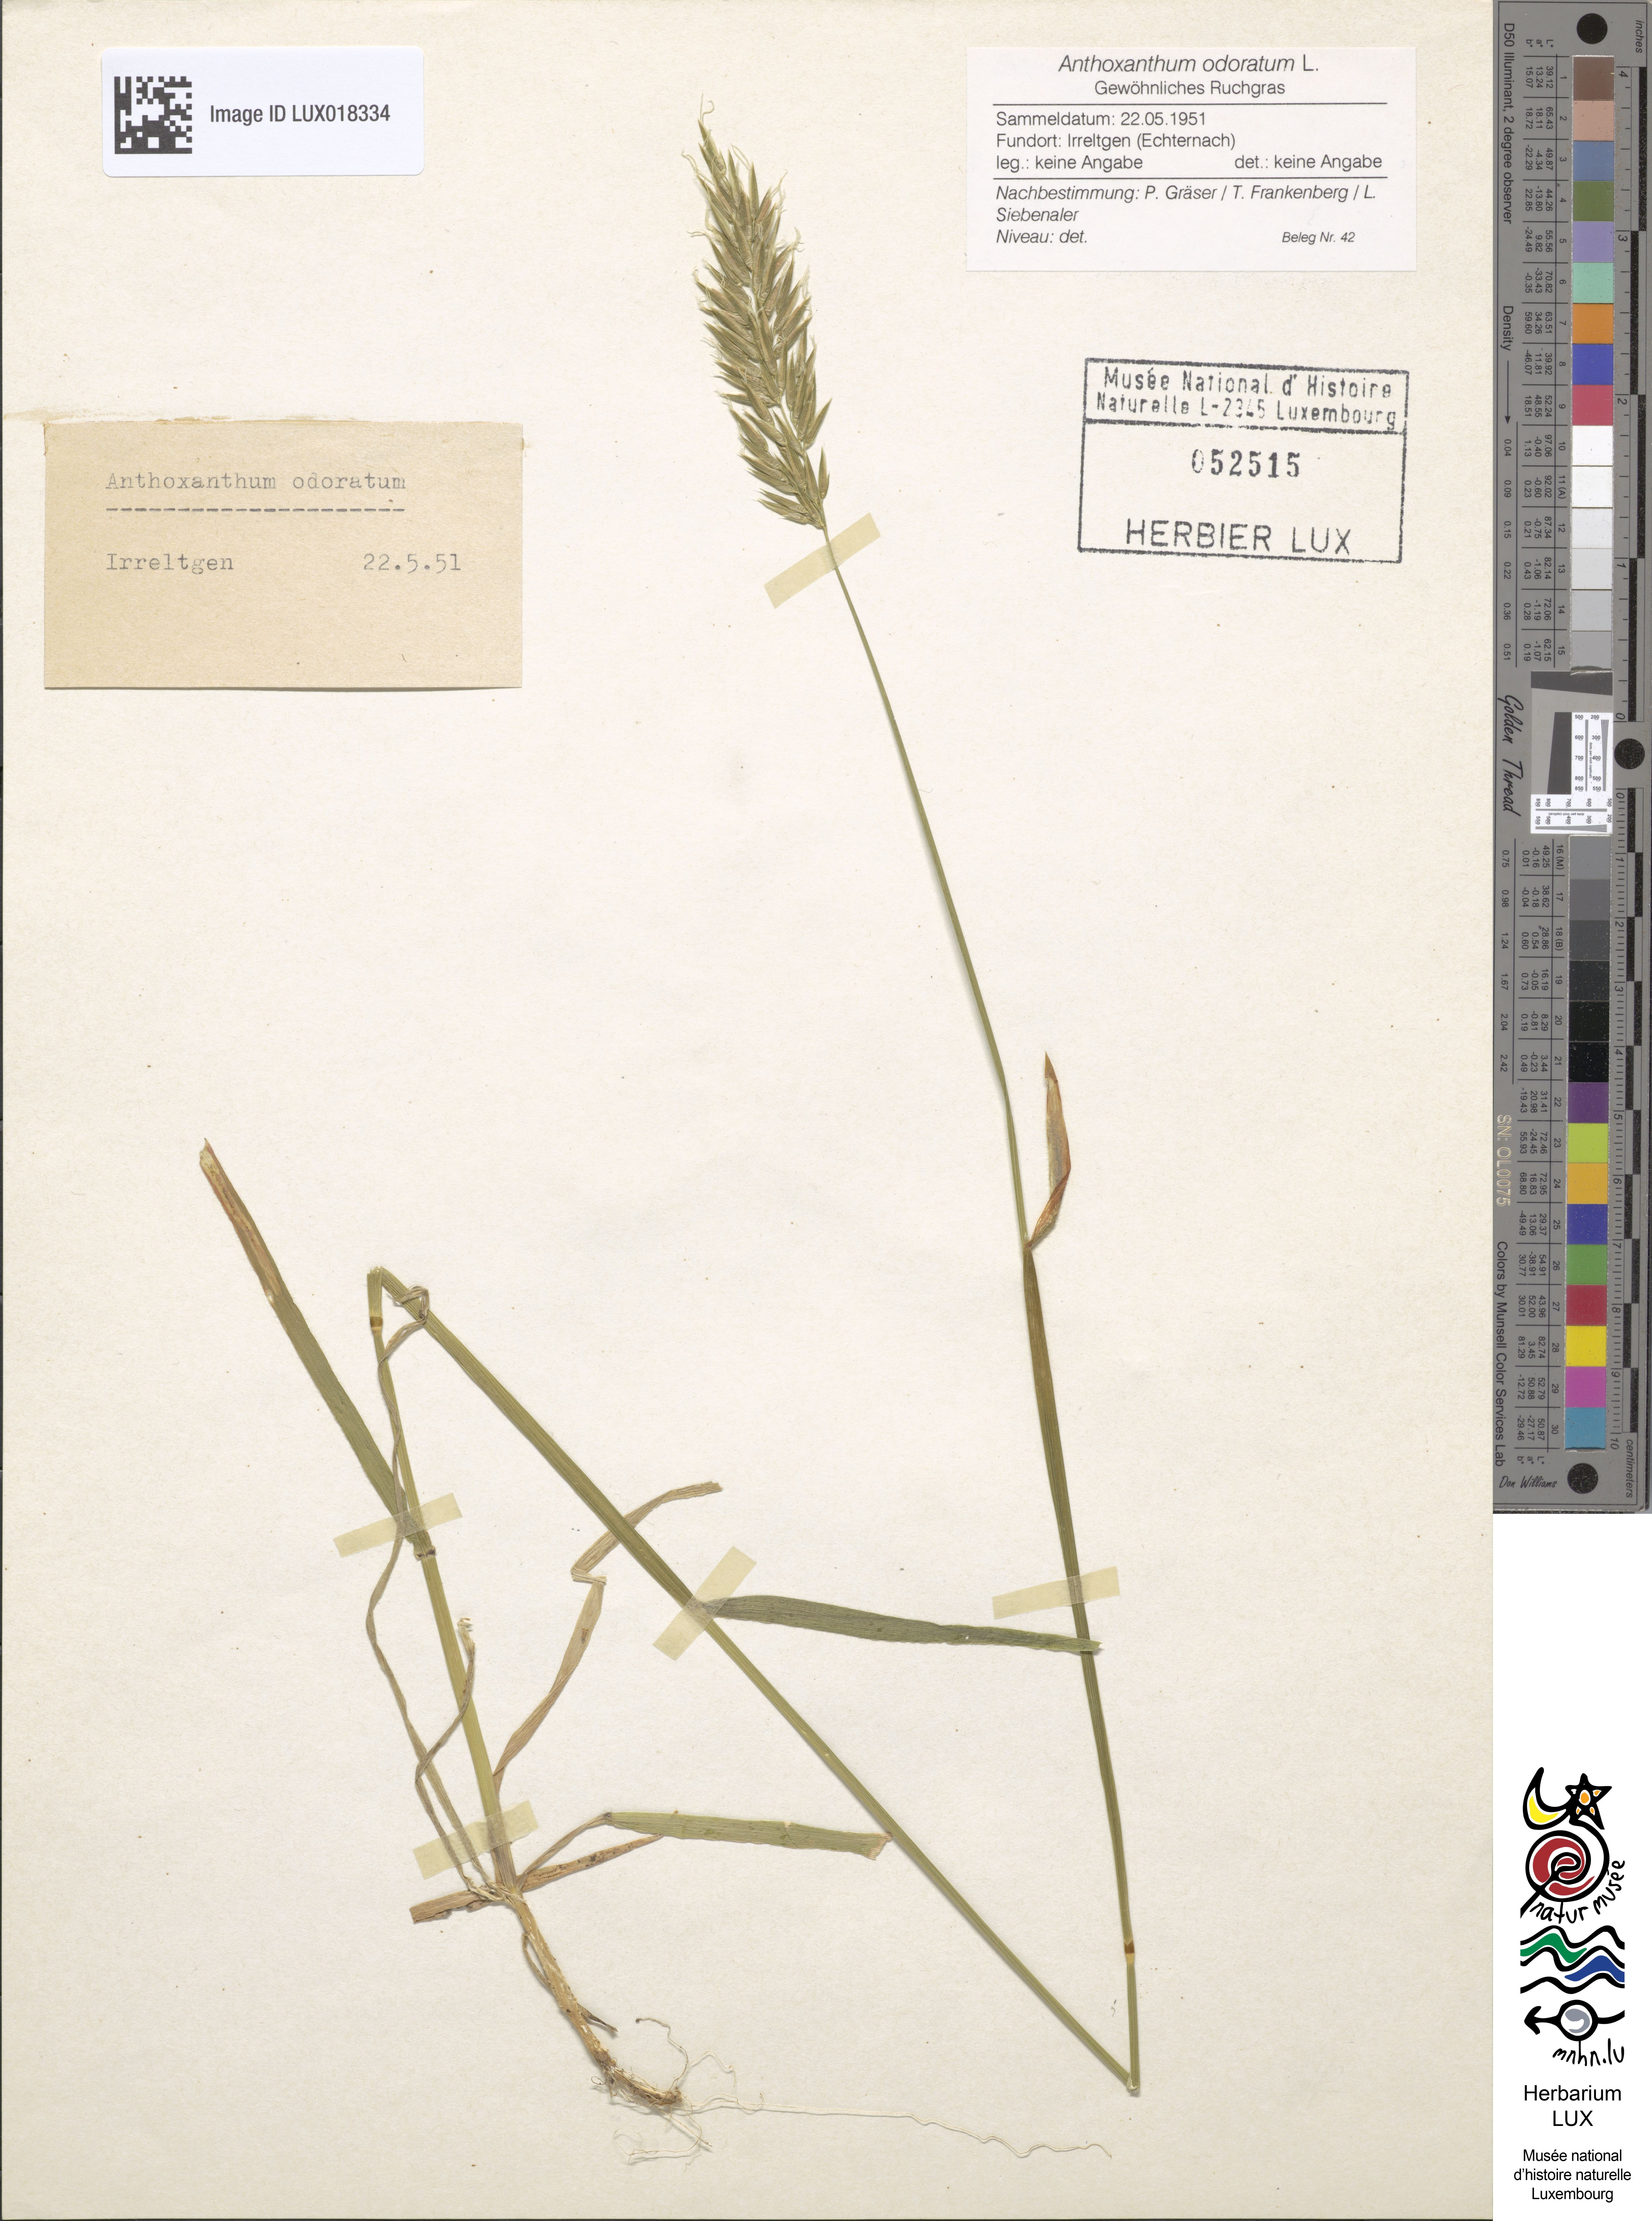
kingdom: Plantae
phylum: Tracheophyta
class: Liliopsida
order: Poales
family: Poaceae
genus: Anthoxanthum
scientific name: Anthoxanthum odoratum
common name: Sweet vernalgrass
